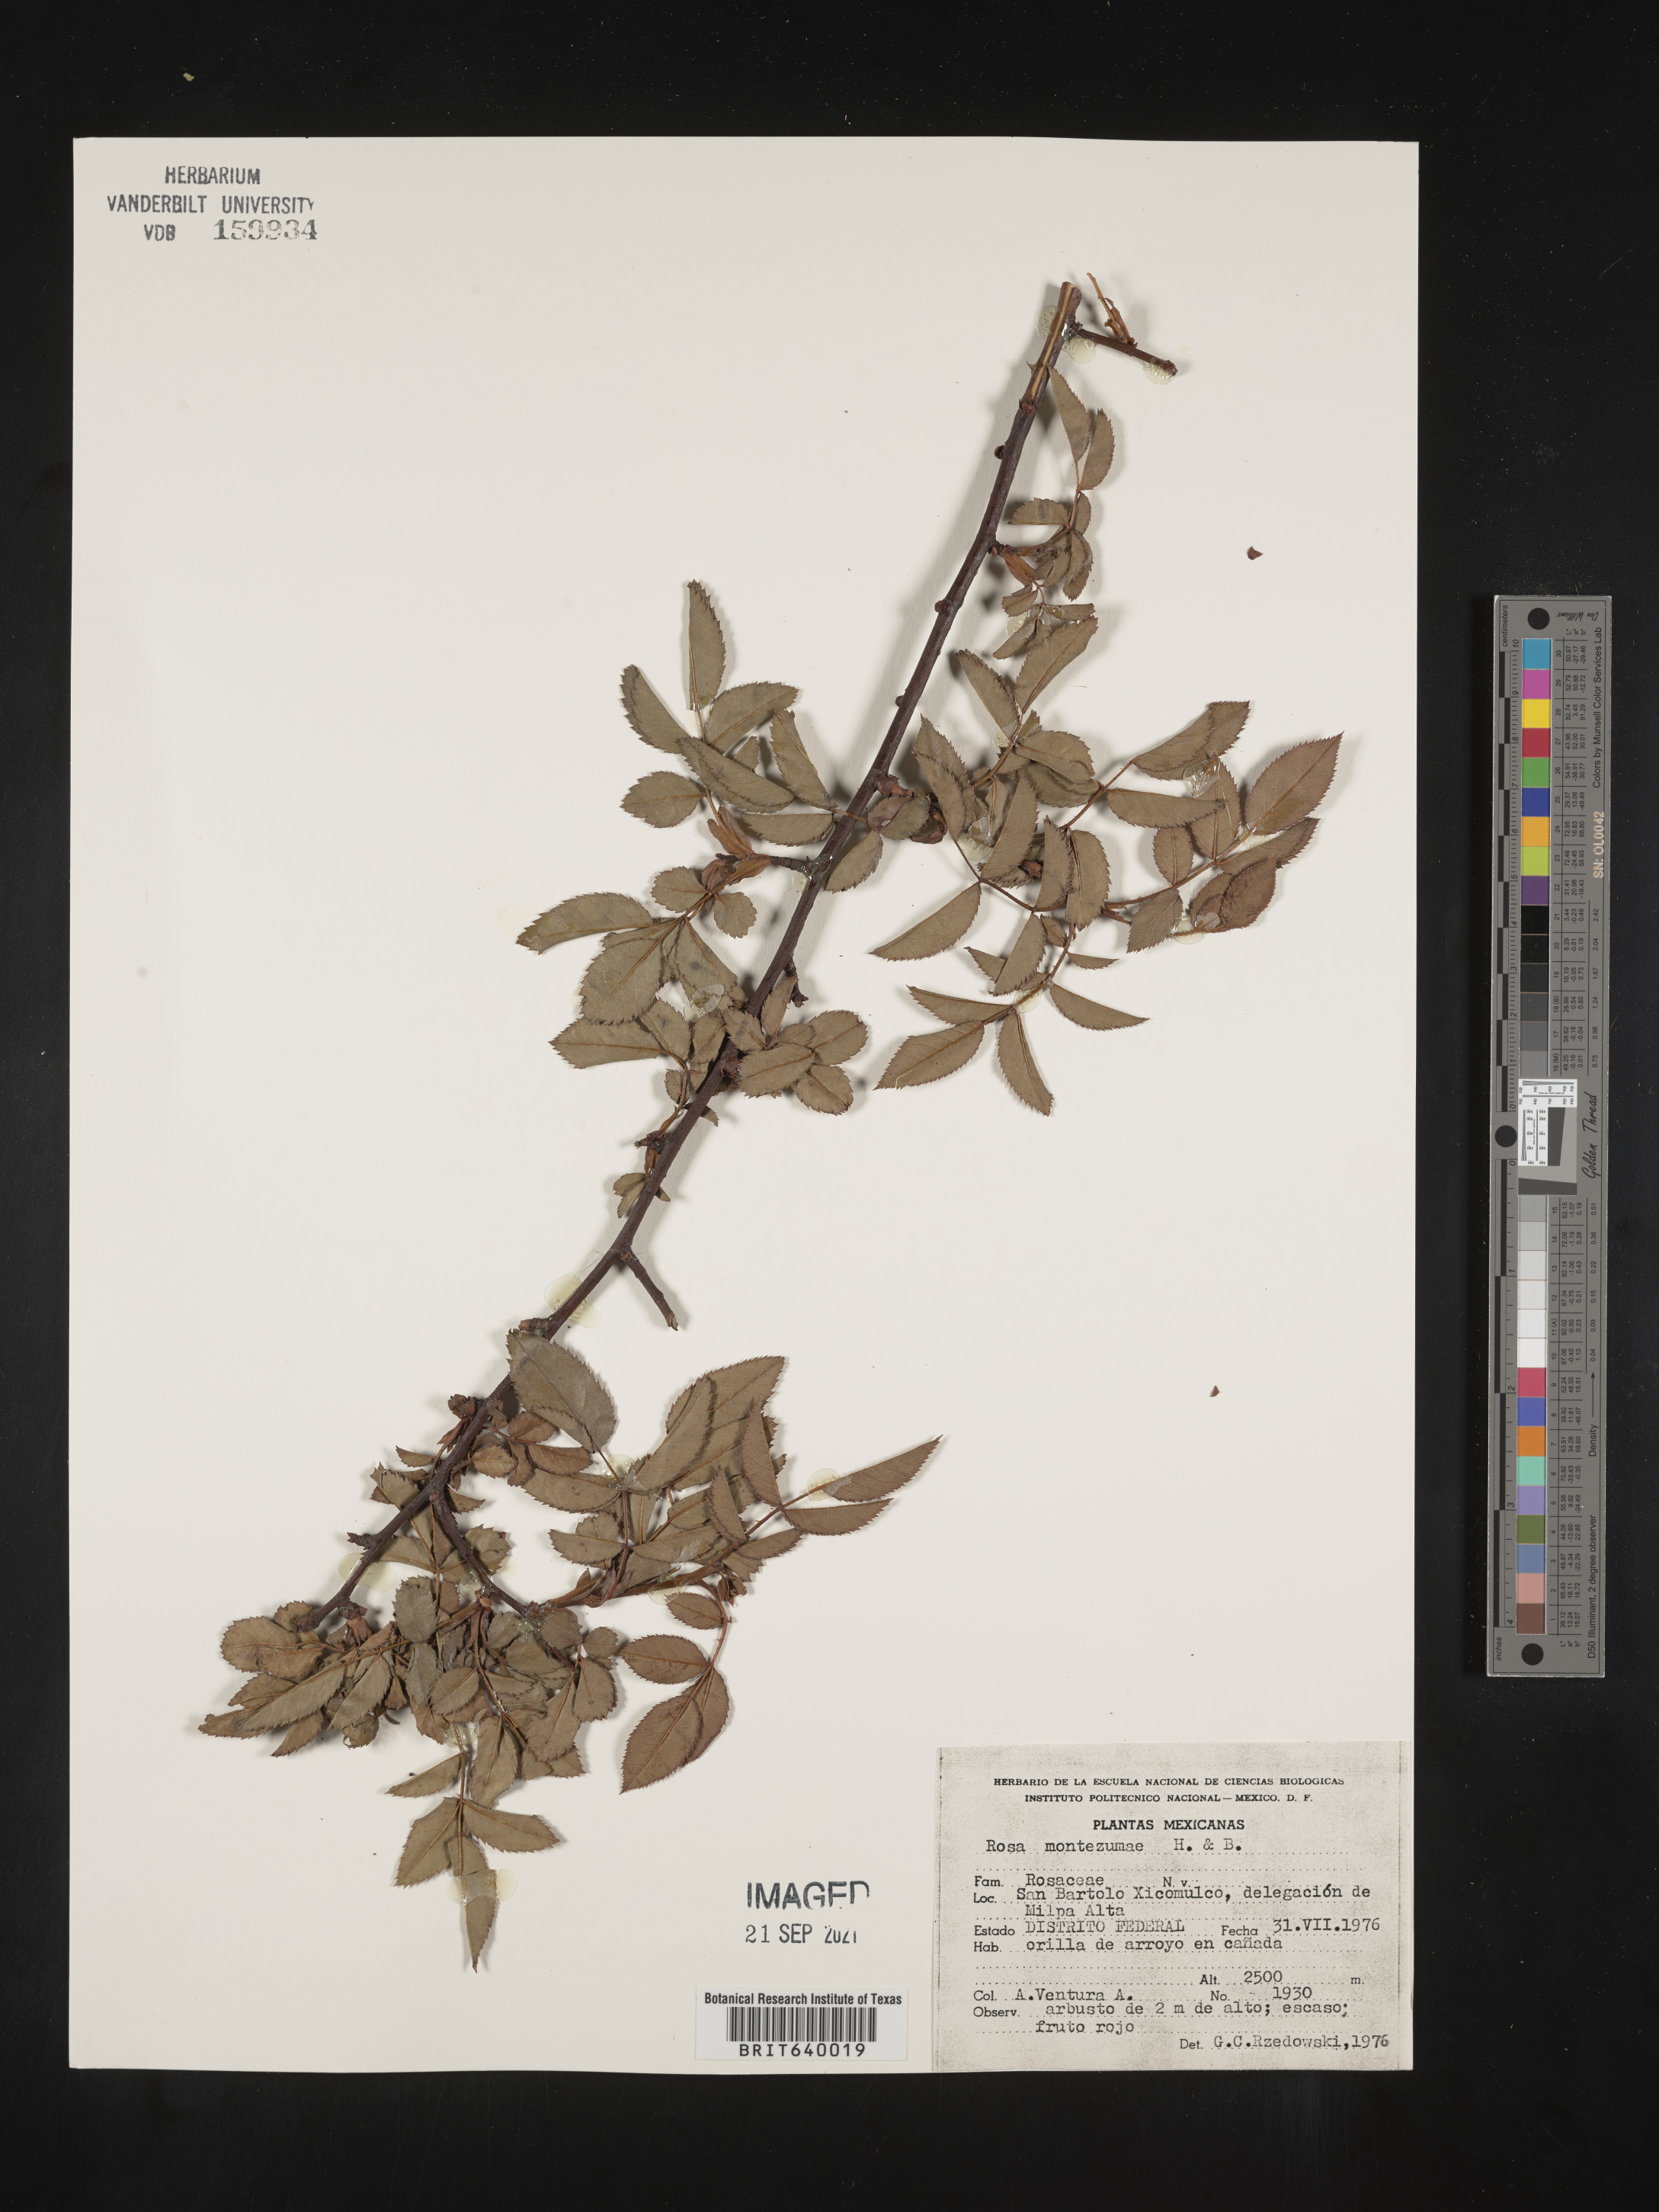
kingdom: Plantae
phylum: Tracheophyta
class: Magnoliopsida
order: Rosales
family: Rosaceae
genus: Rosa
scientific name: Rosa
